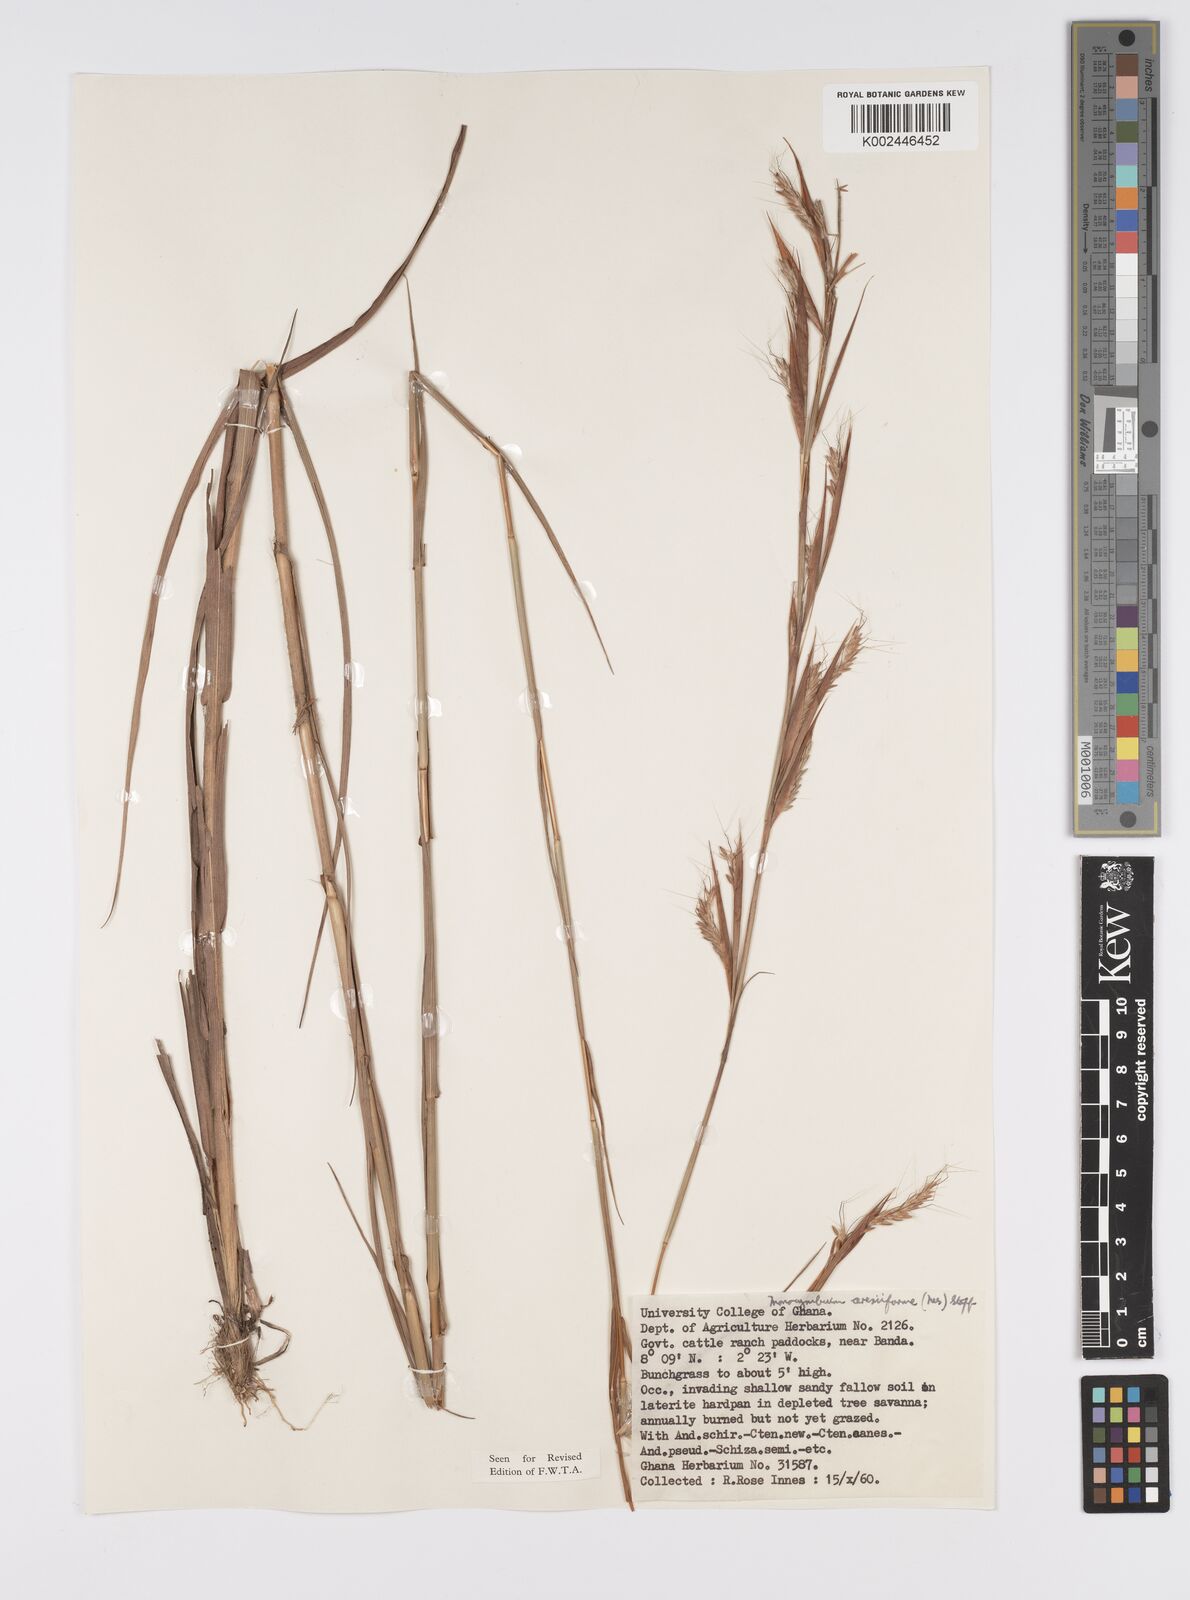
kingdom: Plantae
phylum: Tracheophyta
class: Liliopsida
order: Poales
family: Poaceae
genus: Monocymbium
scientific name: Monocymbium ceresiiforme
